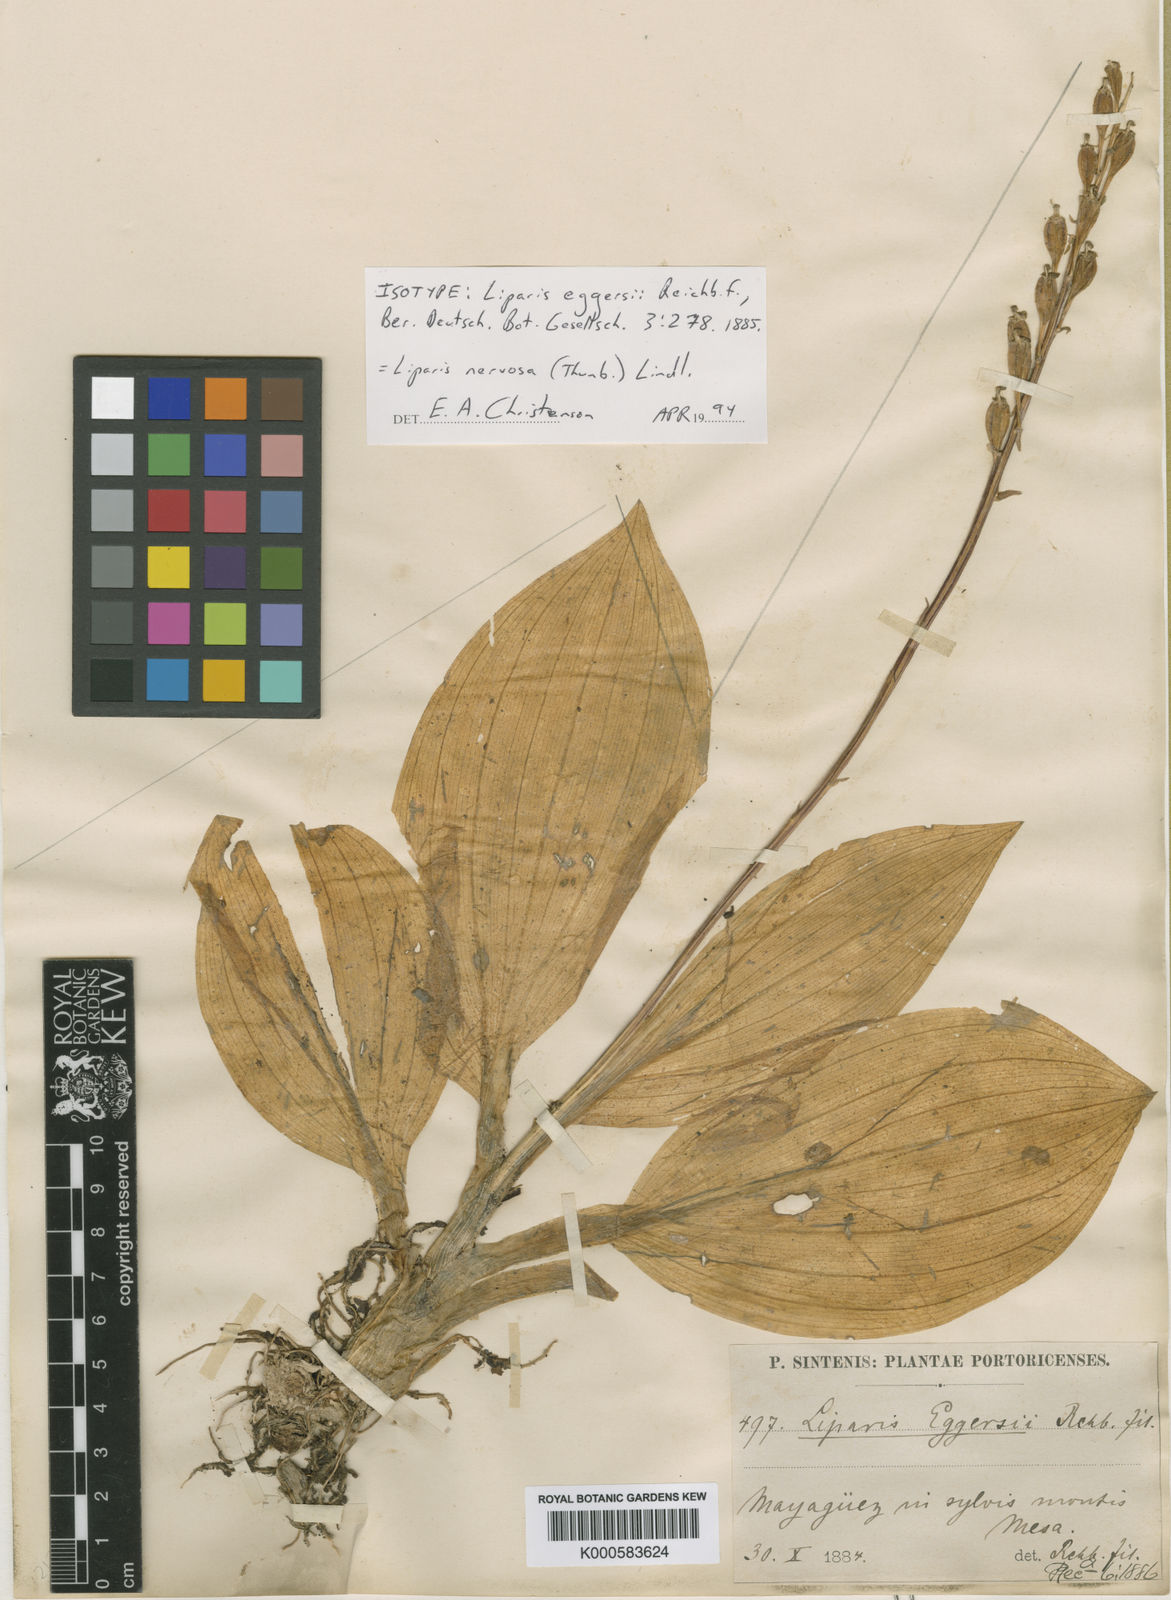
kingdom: Plantae
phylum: Tracheophyta
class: Liliopsida
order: Asparagales
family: Orchidaceae
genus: Liparis
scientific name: Liparis nervosa
